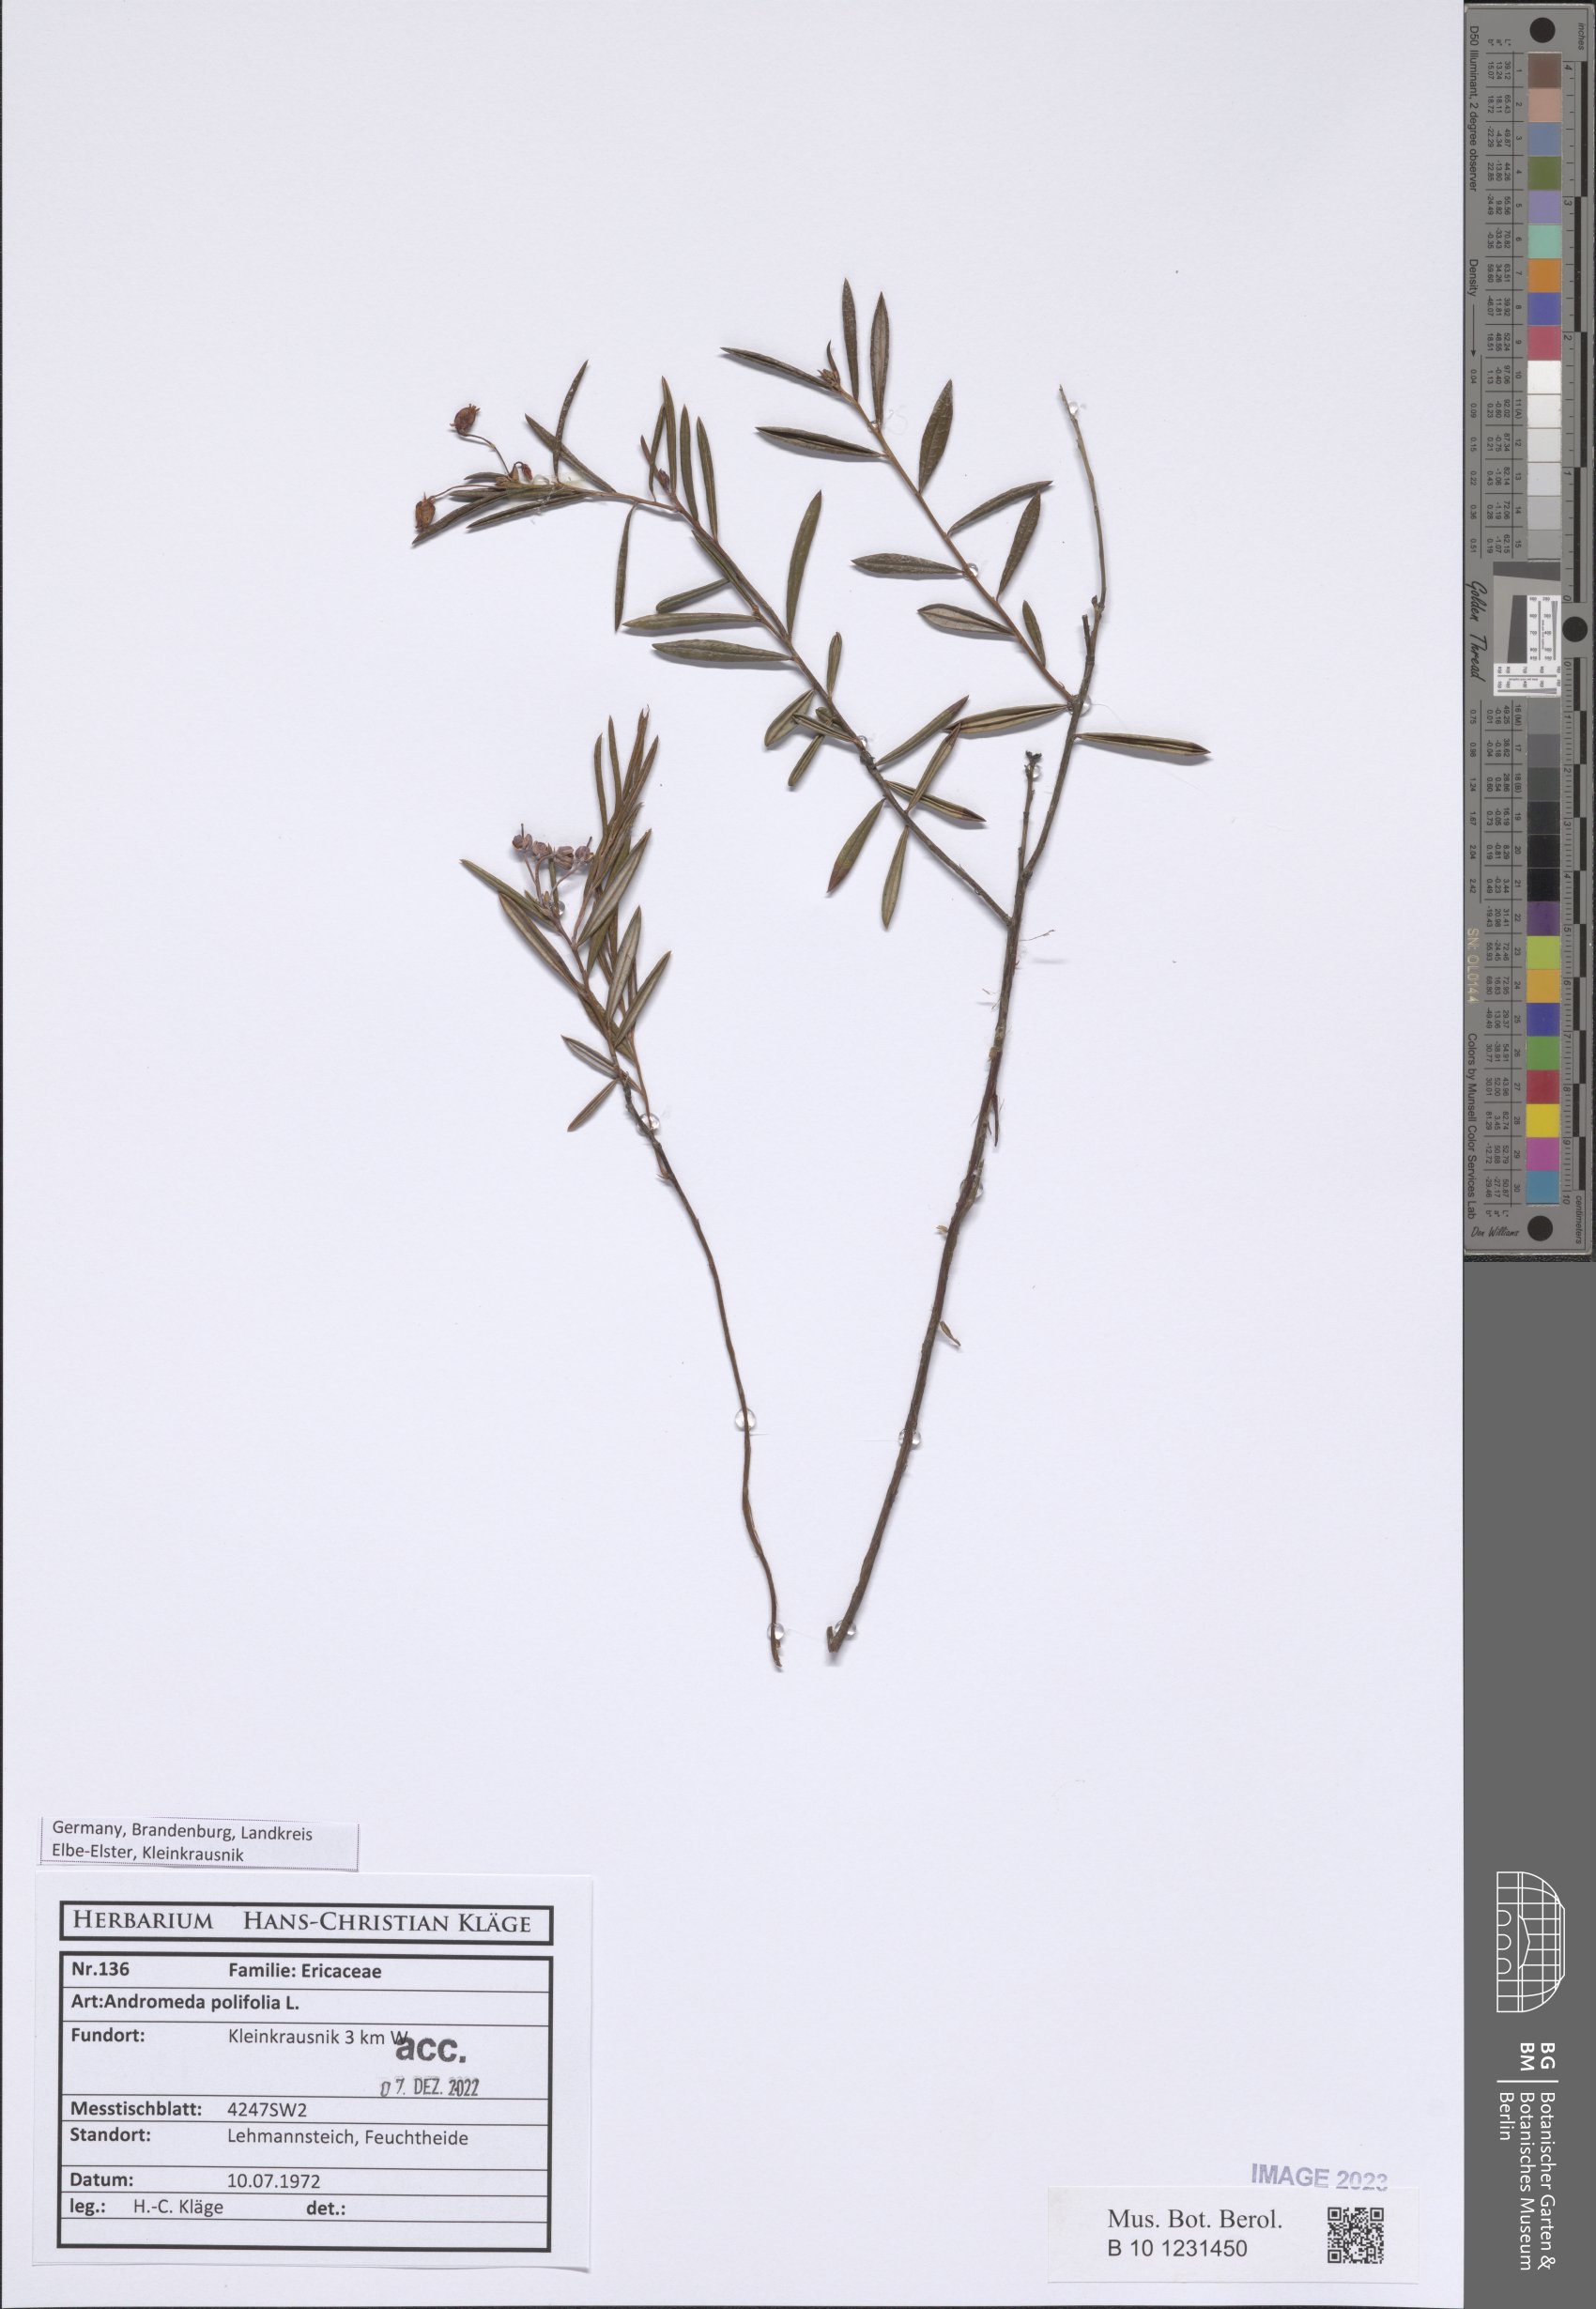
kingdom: Plantae
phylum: Tracheophyta
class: Magnoliopsida
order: Ericales
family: Ericaceae
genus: Andromeda
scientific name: Andromeda polifolia
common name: Bog-rosemary
